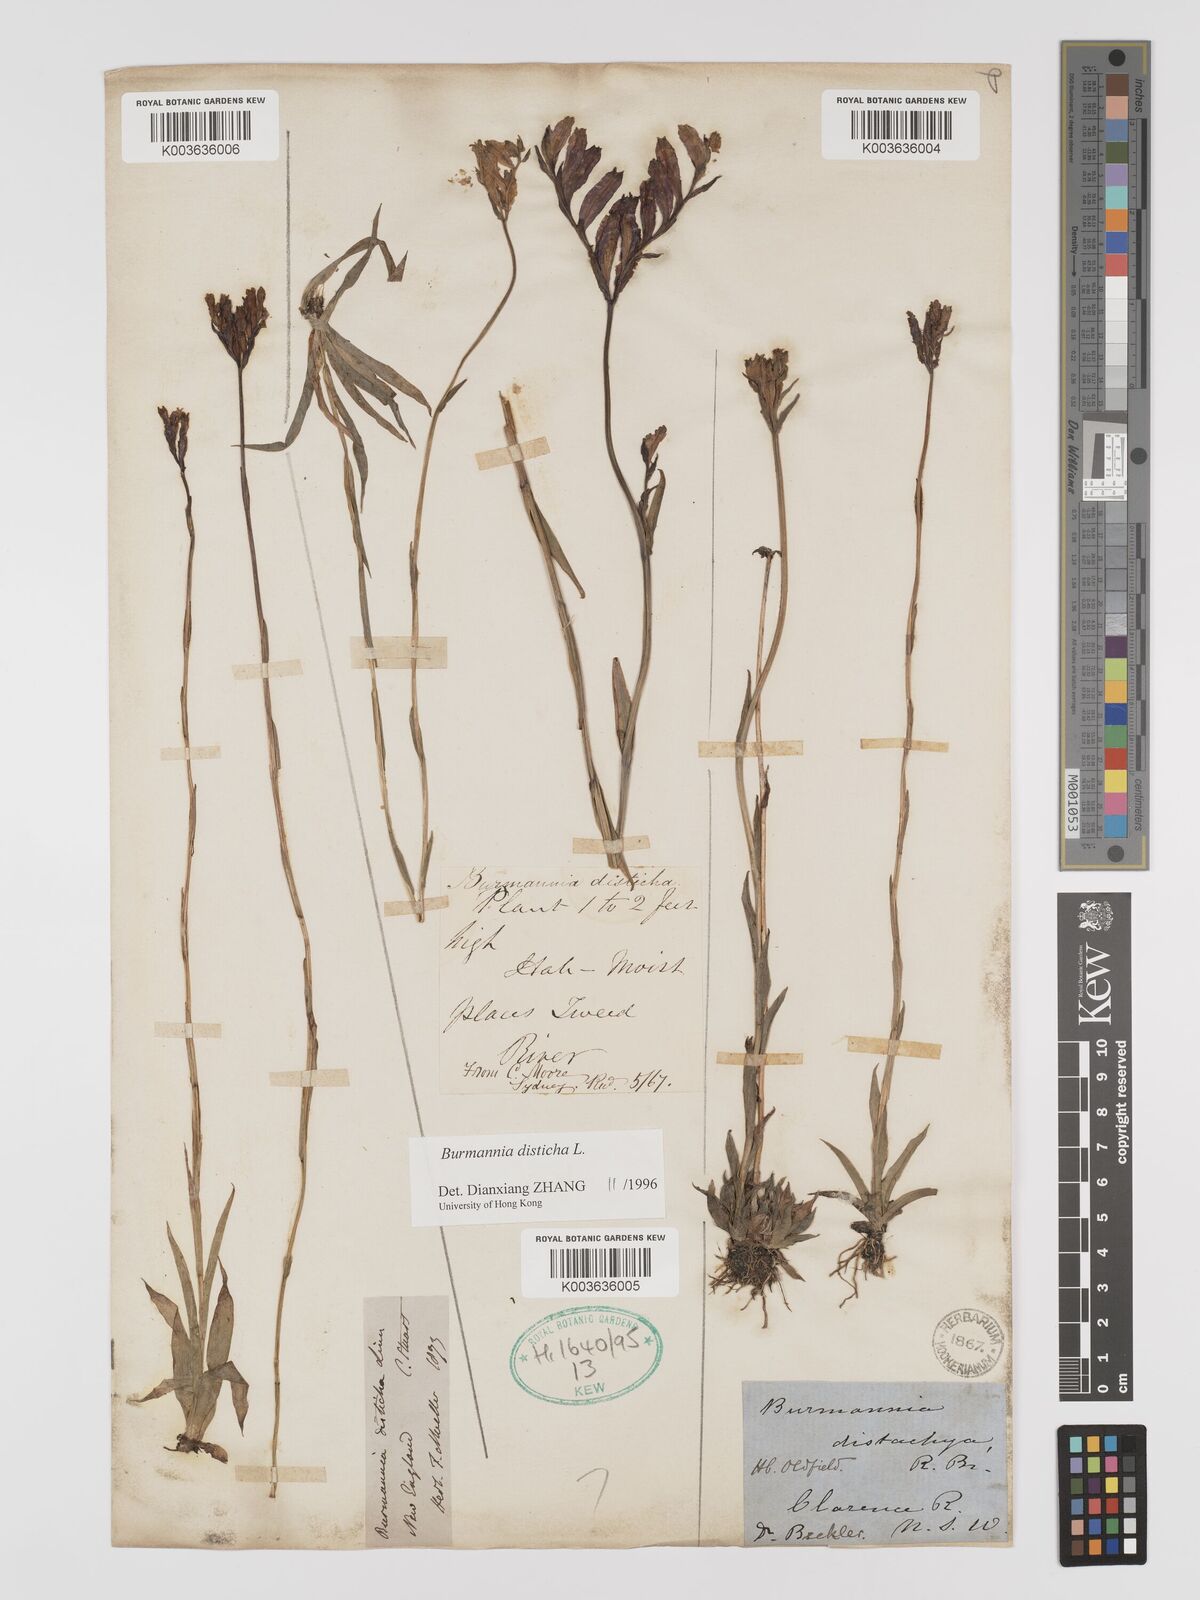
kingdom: Plantae
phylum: Tracheophyta
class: Liliopsida
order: Dioscoreales
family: Burmanniaceae
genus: Burmannia
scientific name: Burmannia disticha
